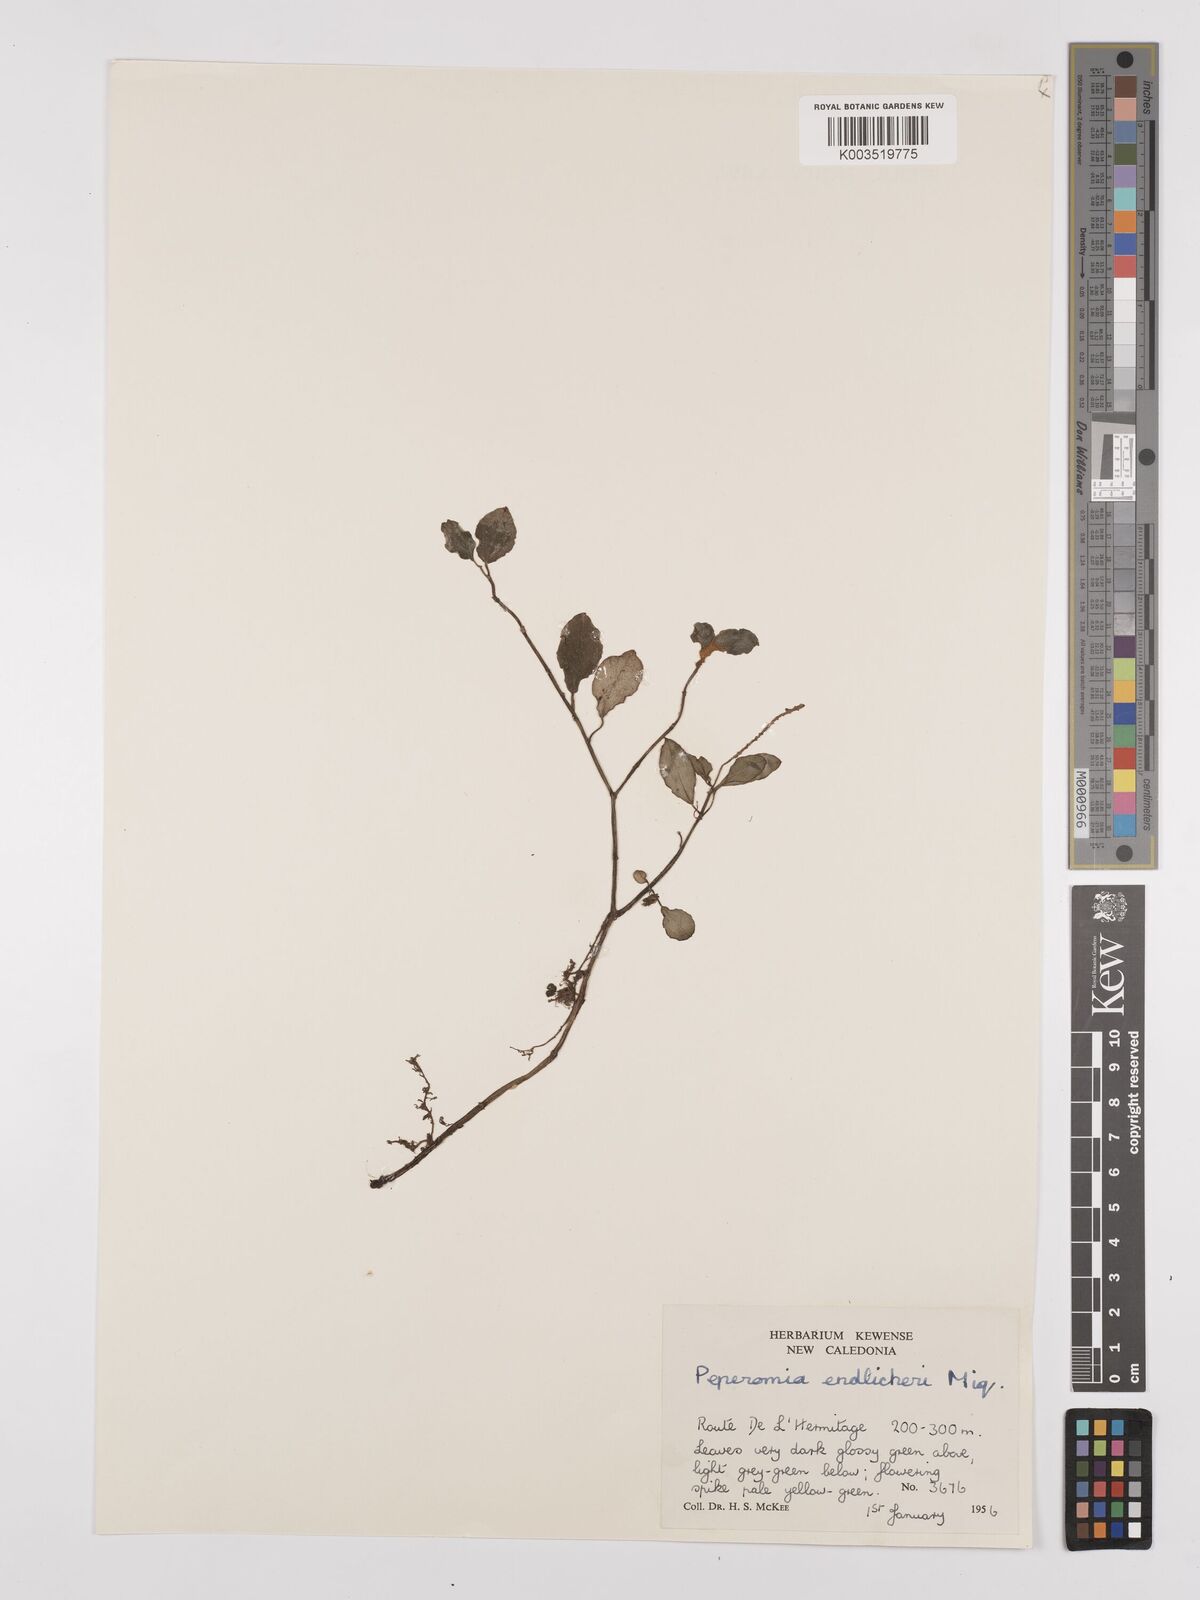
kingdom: Plantae
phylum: Tracheophyta
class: Magnoliopsida
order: Piperales
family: Piperaceae
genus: Peperomia
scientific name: Peperomia urvilleana
